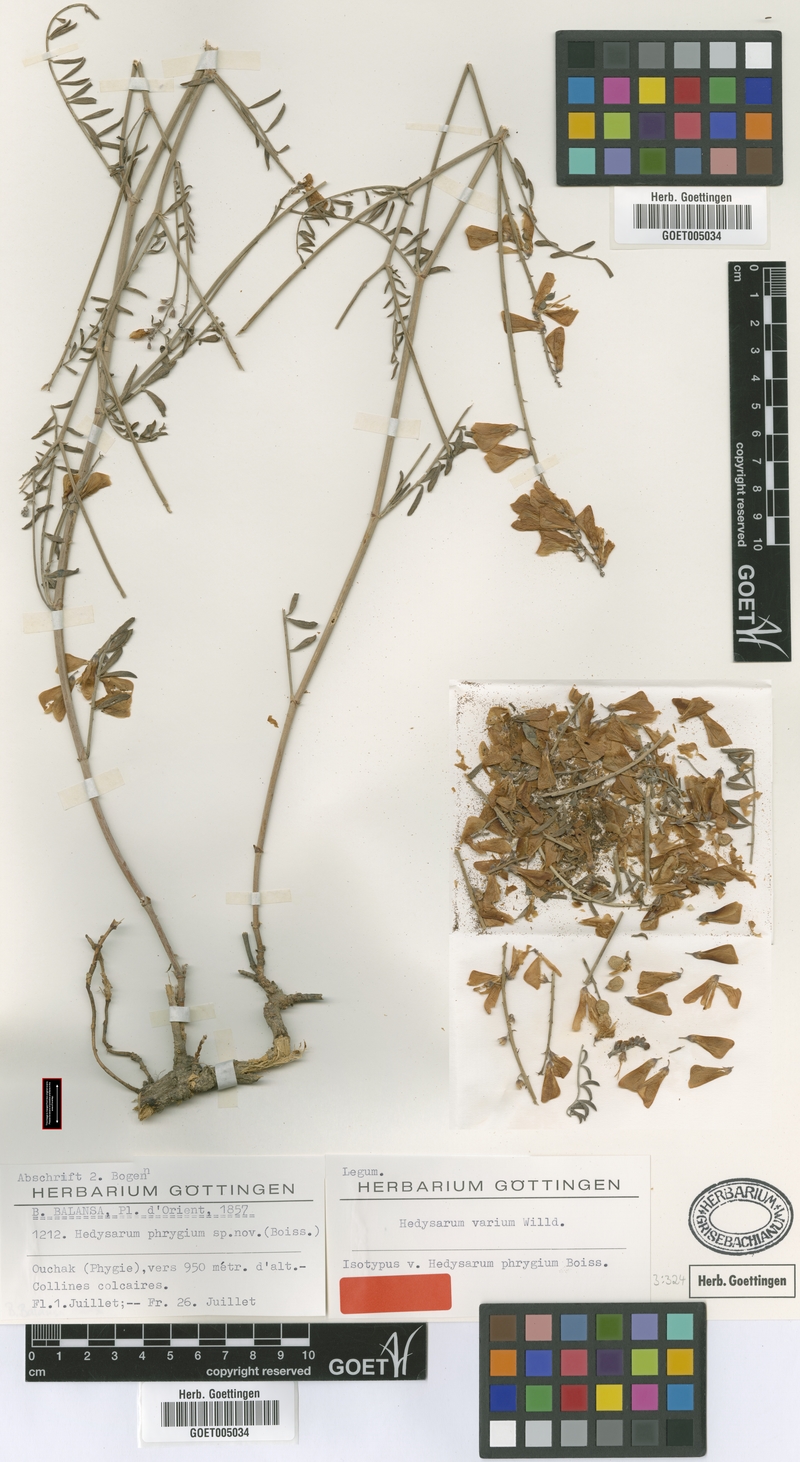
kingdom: Plantae
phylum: Tracheophyta
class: Magnoliopsida
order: Fabales
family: Fabaceae
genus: Hedysarum
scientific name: Hedysarum varium
